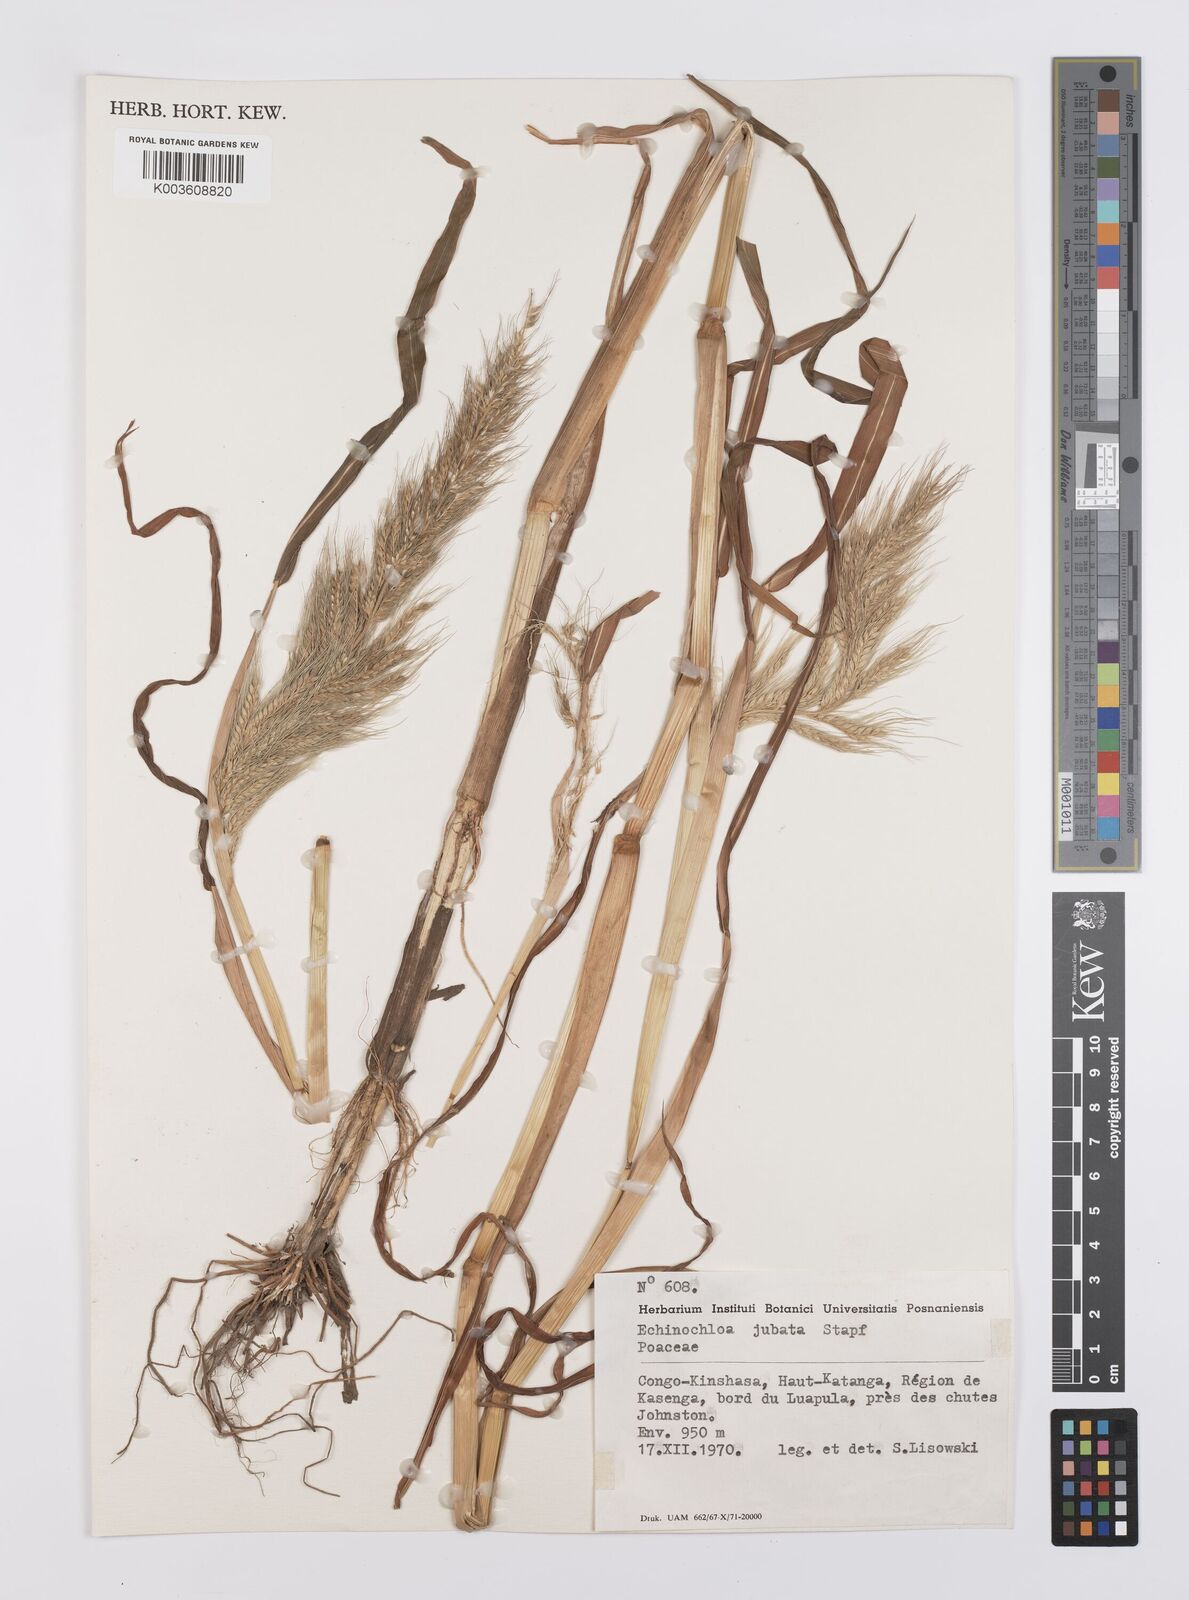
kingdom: Plantae
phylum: Tracheophyta
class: Liliopsida
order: Poales
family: Poaceae
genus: Echinochloa
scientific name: Echinochloa jubata
